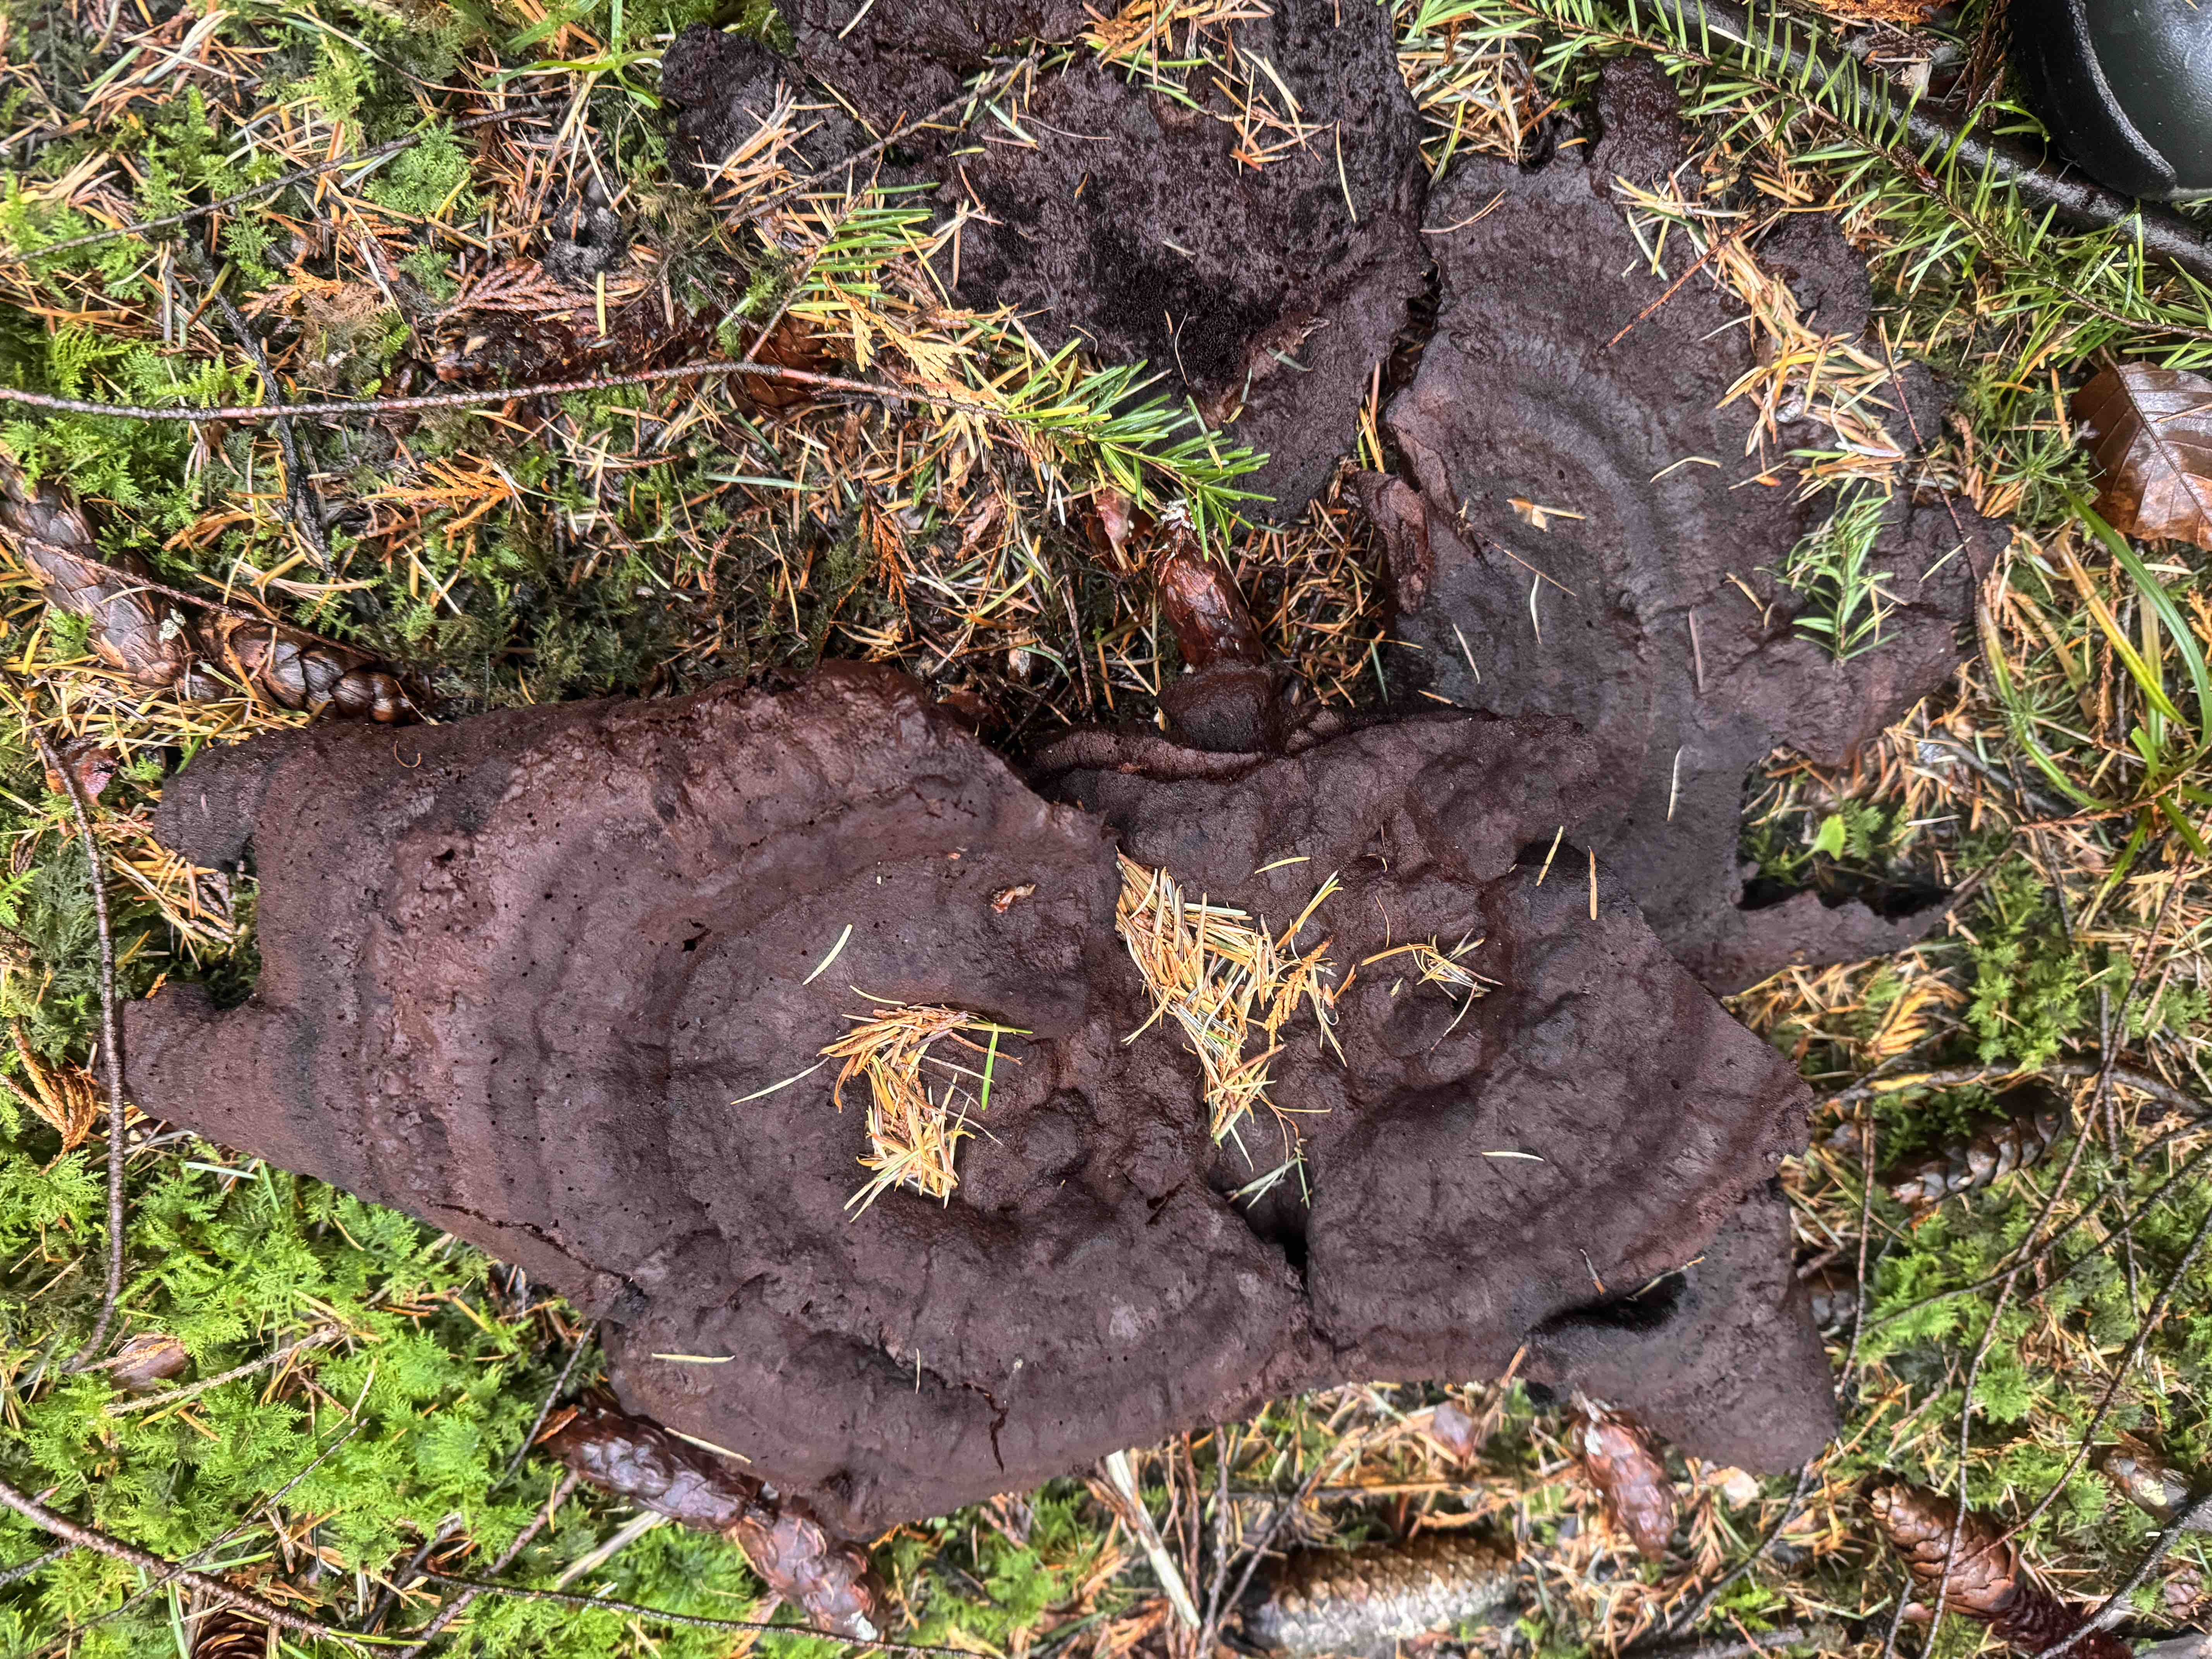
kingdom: Fungi
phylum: Basidiomycota
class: Agaricomycetes
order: Polyporales
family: Laetiporaceae
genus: Phaeolus
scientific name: Phaeolus schweinitzii
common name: brunporesvamp
